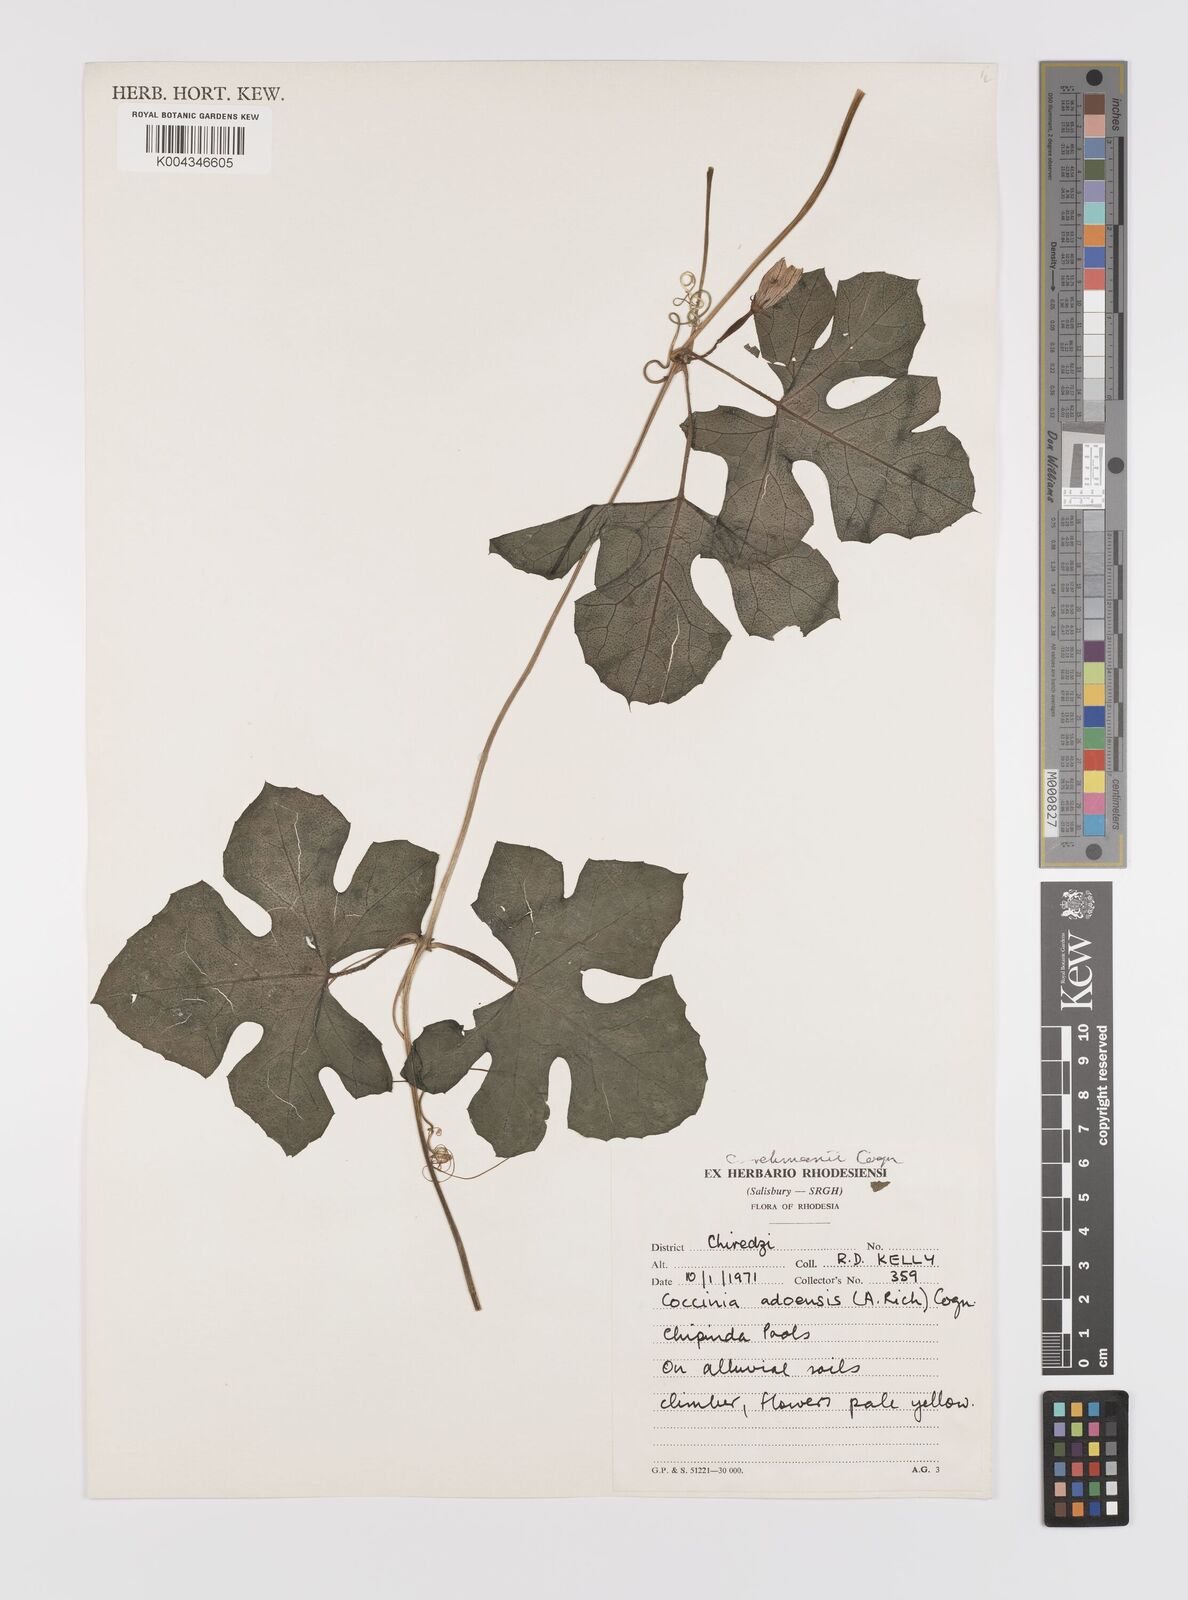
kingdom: Plantae
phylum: Tracheophyta
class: Magnoliopsida
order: Cucurbitales
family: Cucurbitaceae
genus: Coccinia
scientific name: Coccinia rehmannii
